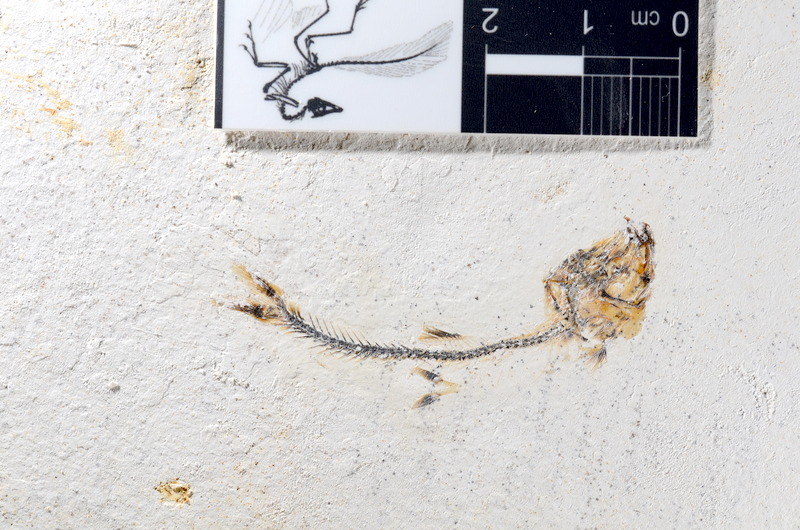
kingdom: Animalia
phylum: Chordata
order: Salmoniformes
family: Orthogonikleithridae
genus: Orthogonikleithrus
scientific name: Orthogonikleithrus hoelli
